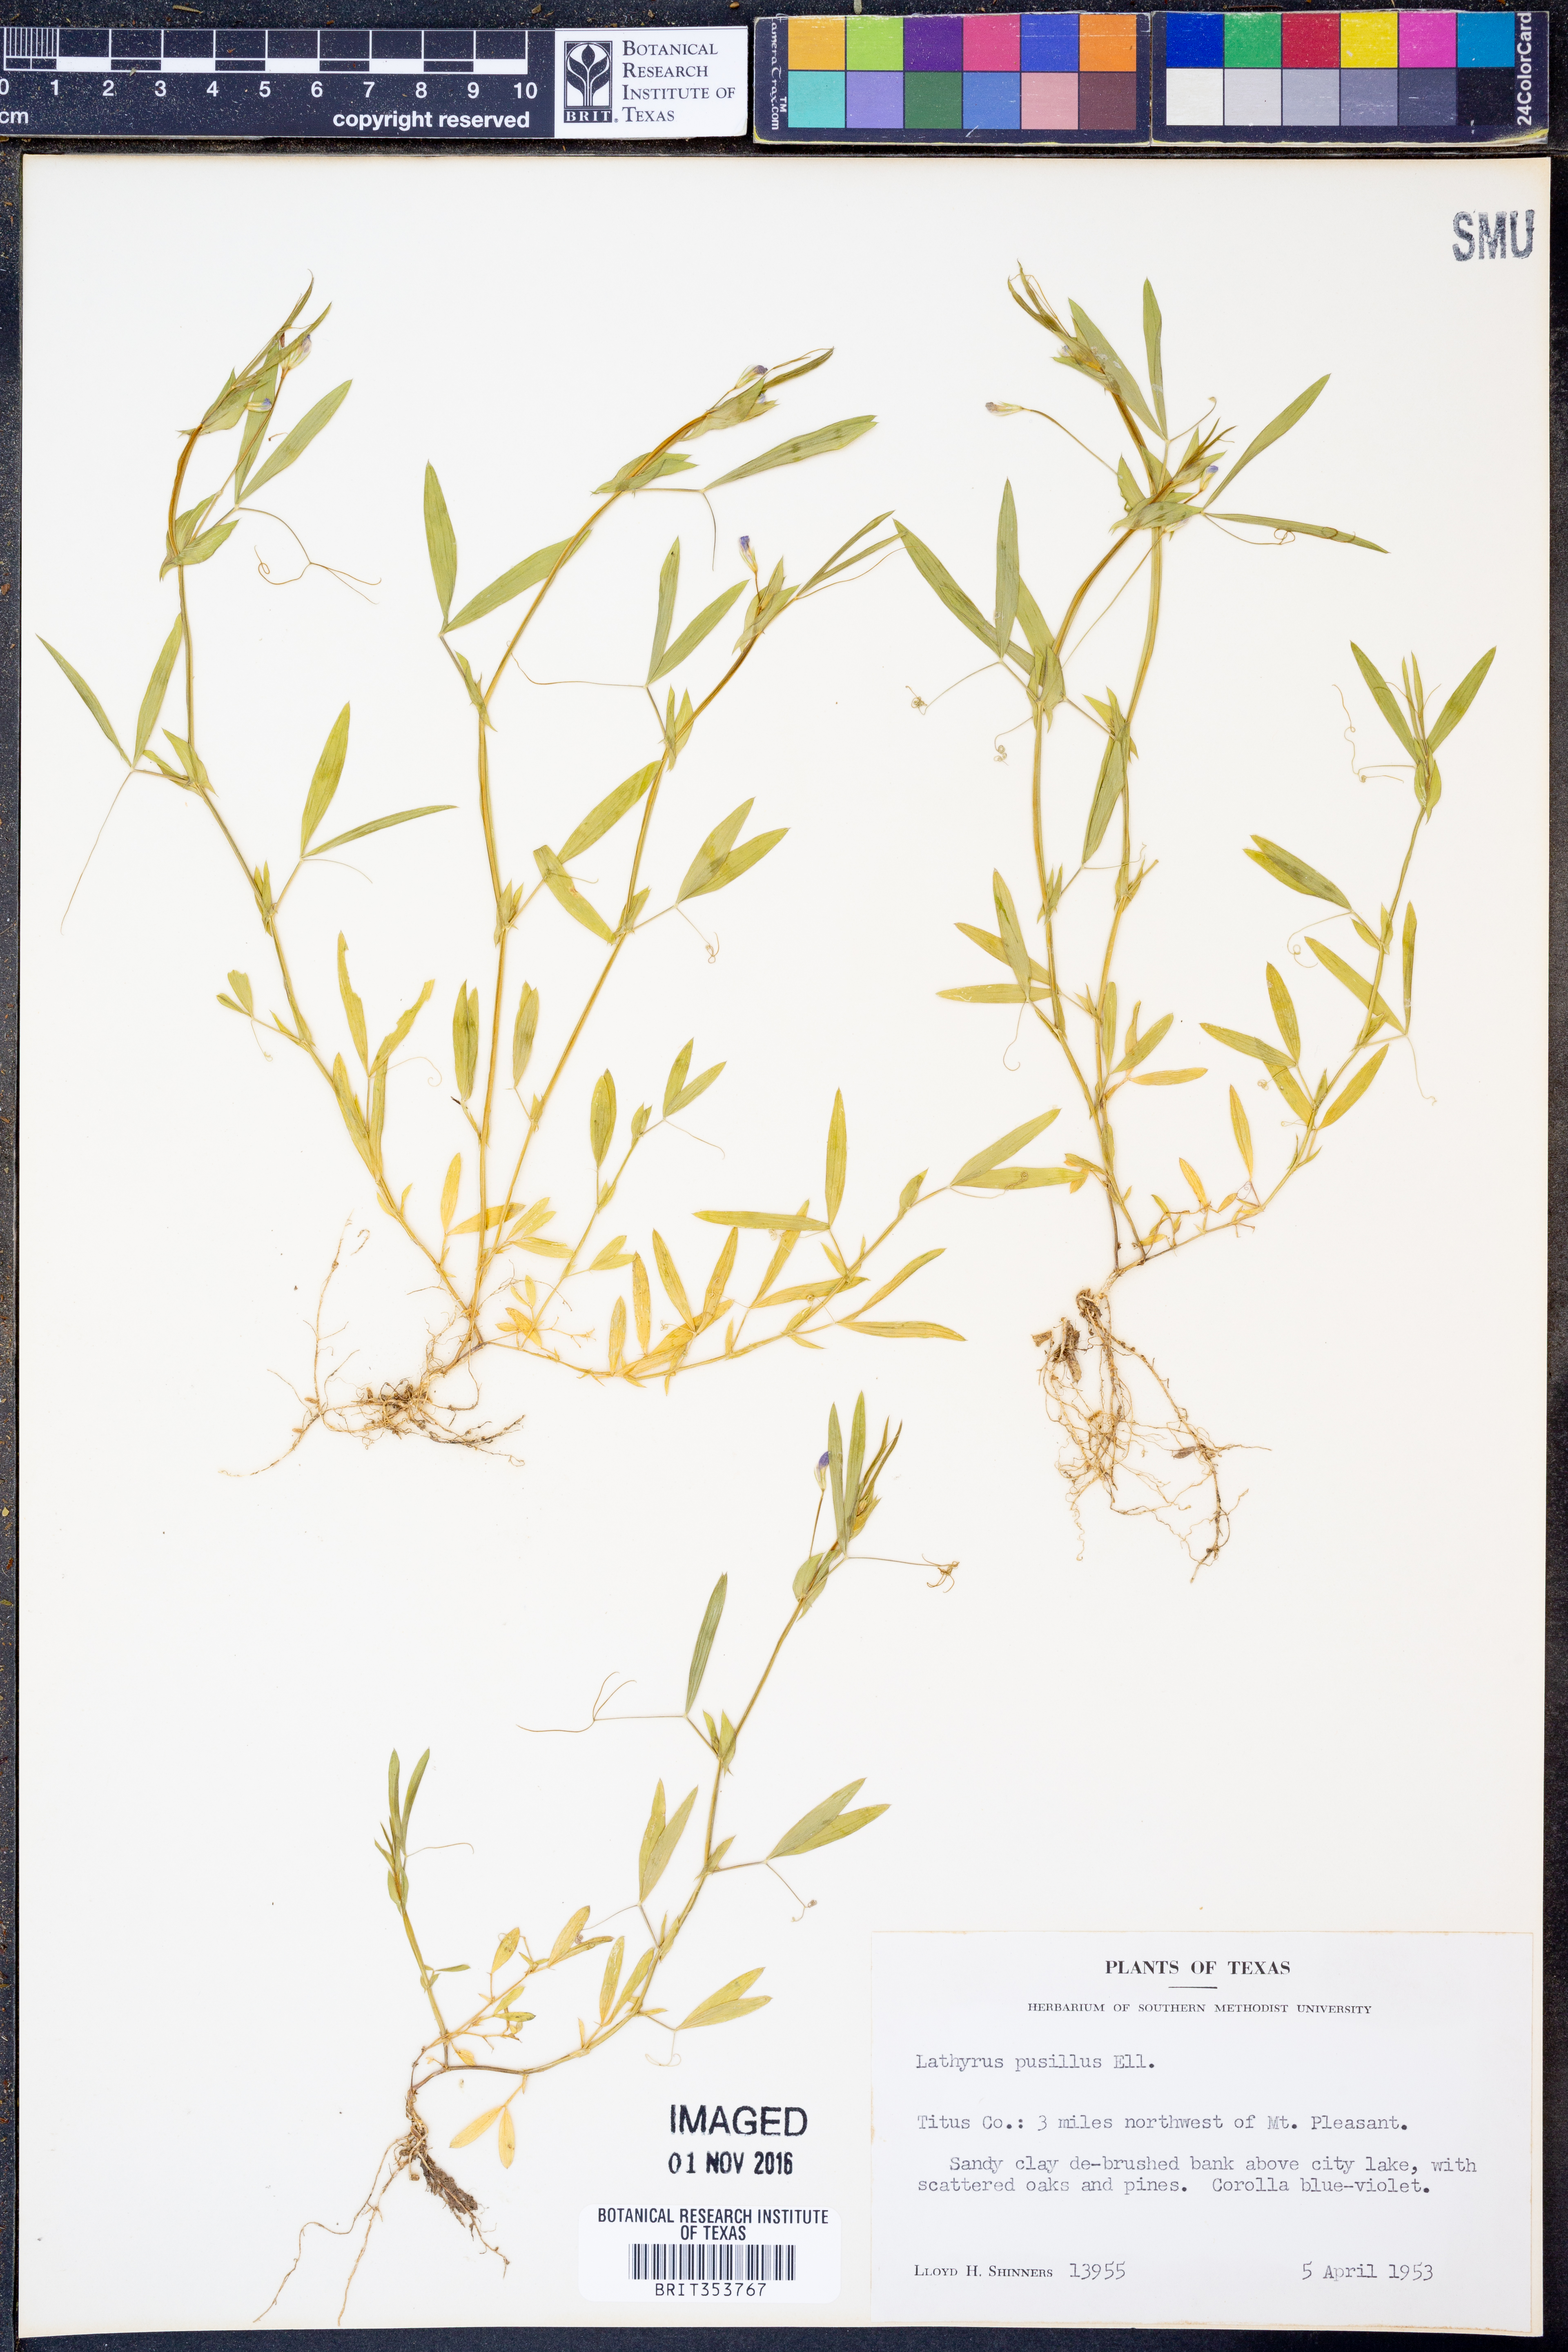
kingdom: Plantae
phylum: Tracheophyta
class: Magnoliopsida
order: Fabales
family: Fabaceae
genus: Lathyrus
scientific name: Lathyrus pusillus
